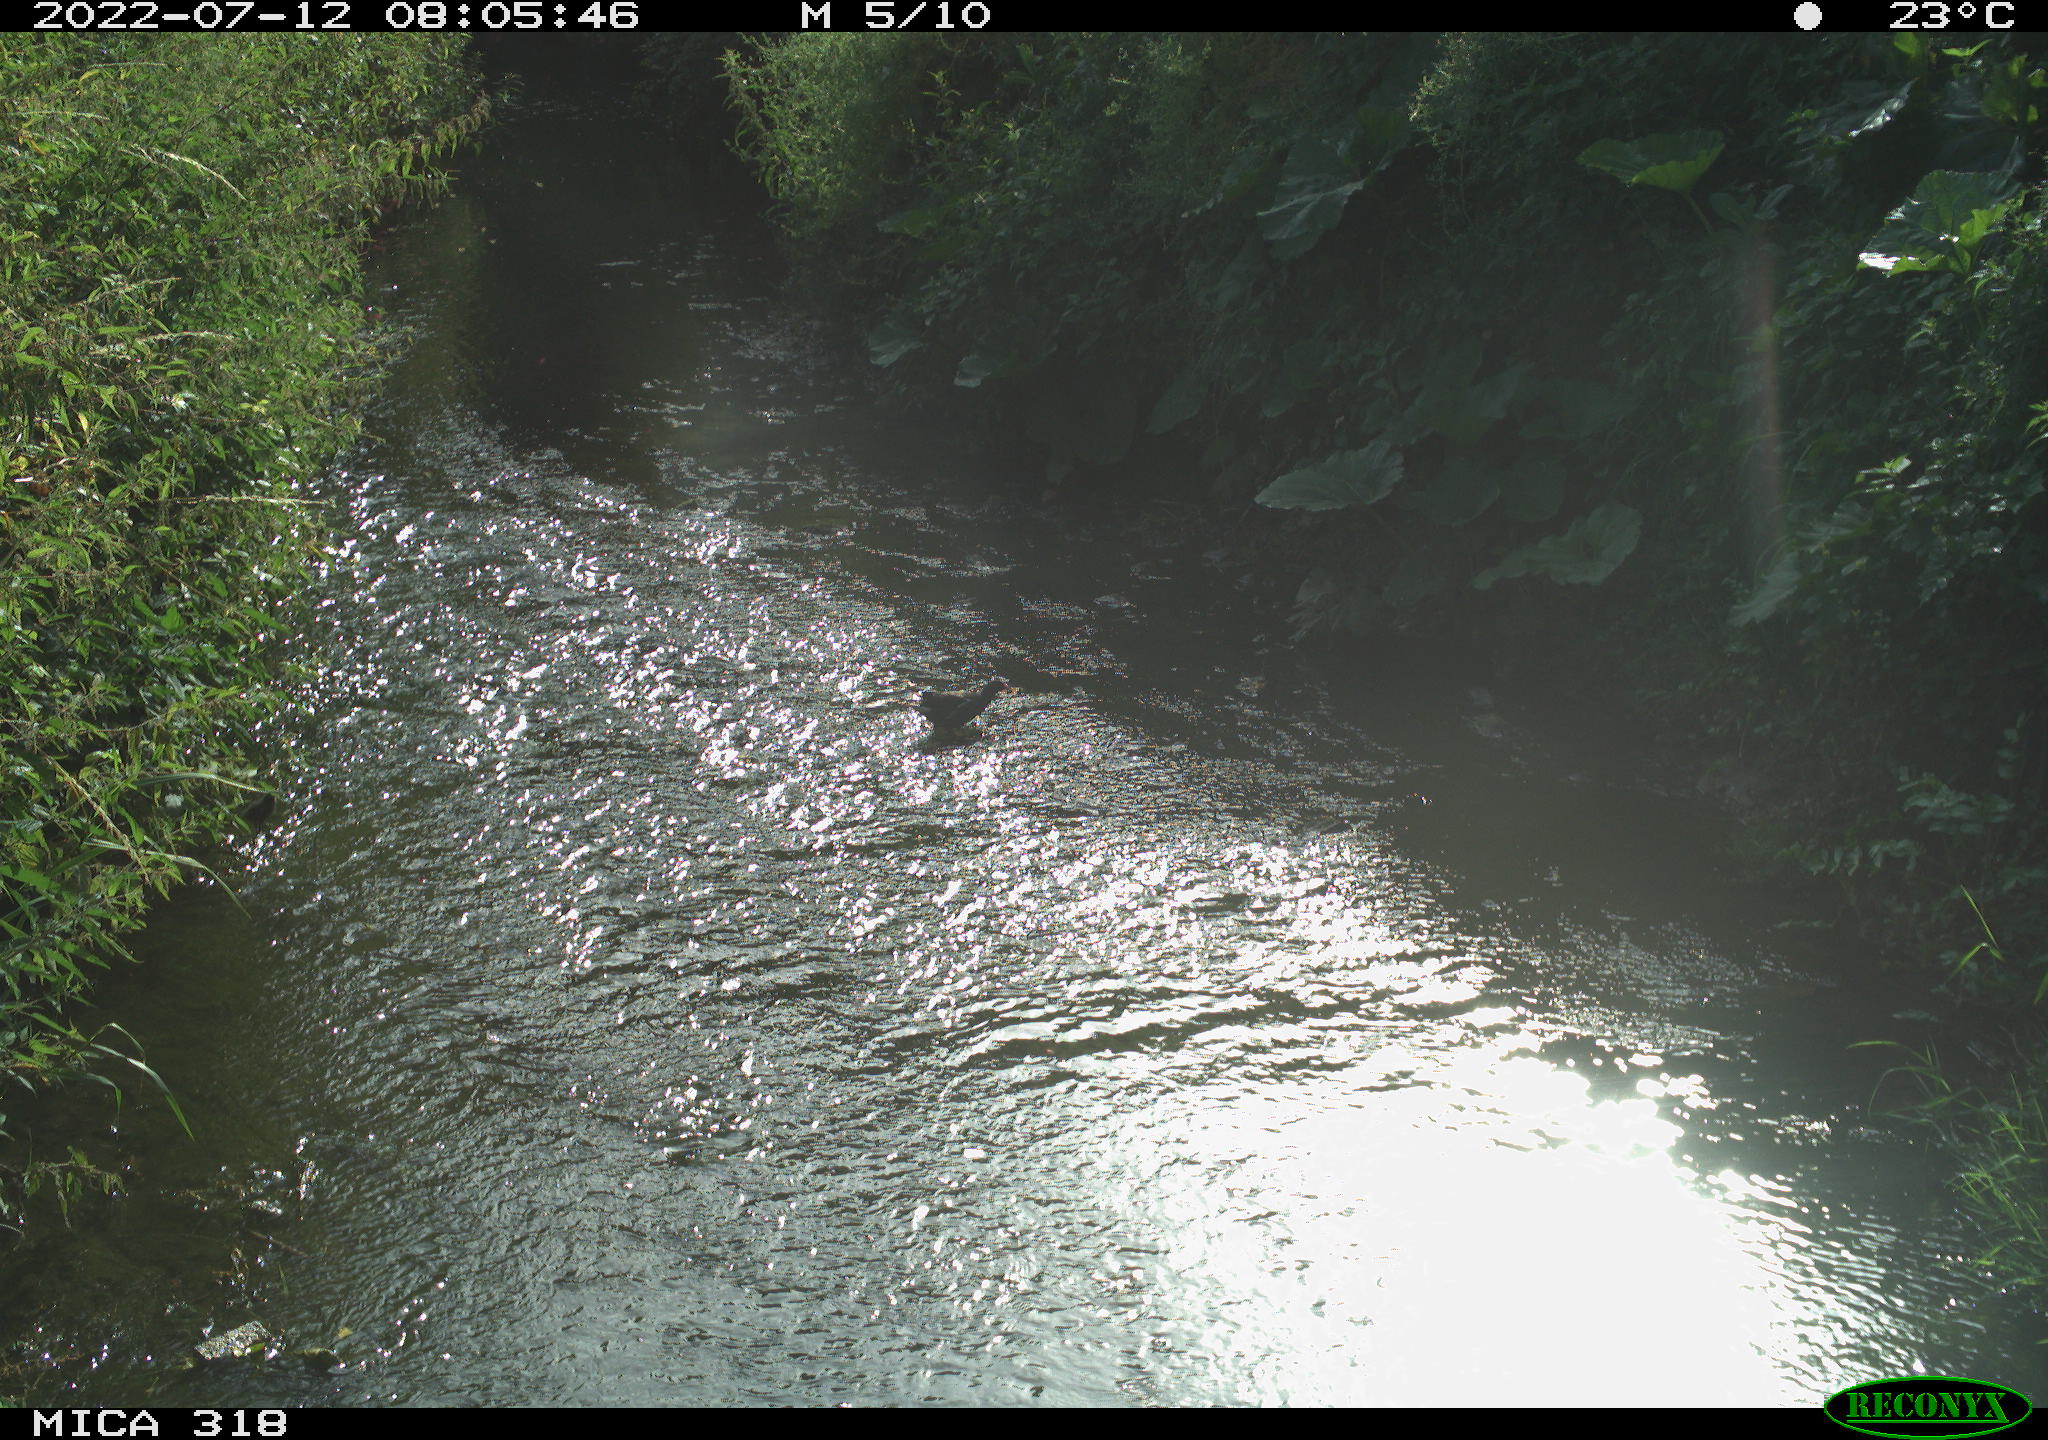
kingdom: Animalia
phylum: Chordata
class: Aves
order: Gruiformes
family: Rallidae
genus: Gallinula
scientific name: Gallinula chloropus
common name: Common moorhen
